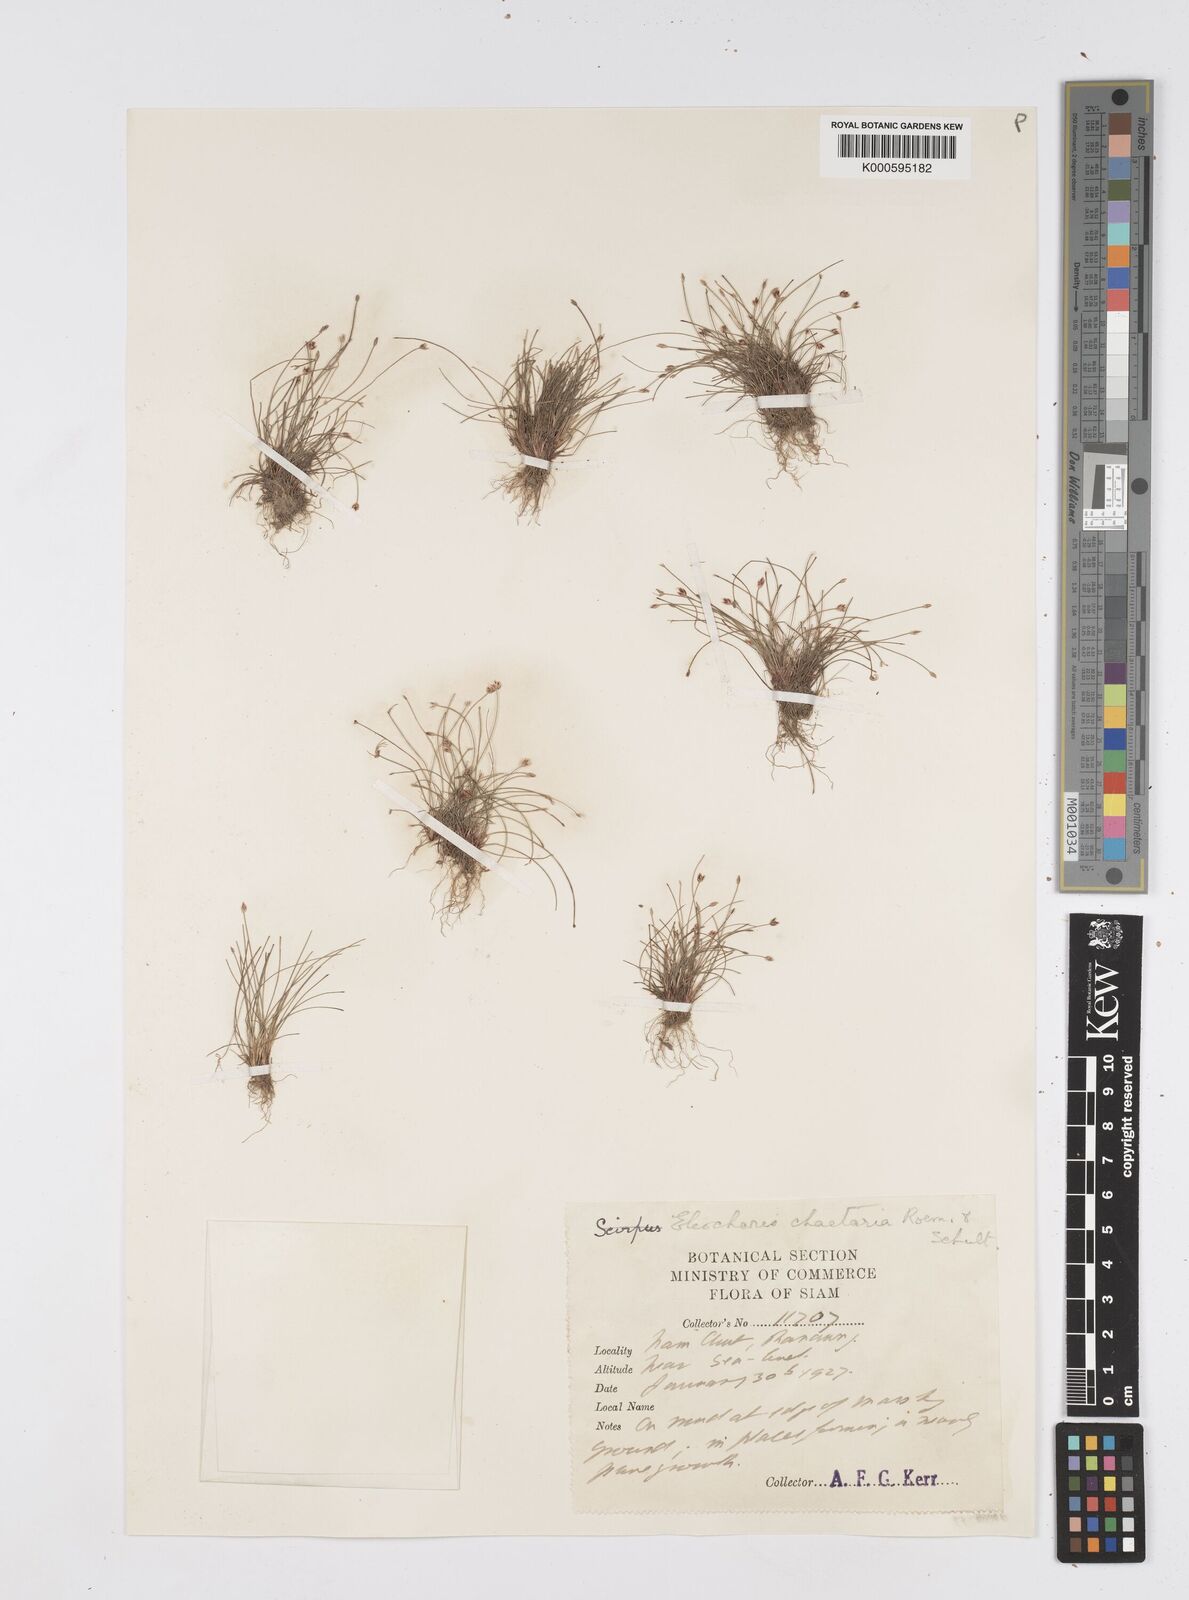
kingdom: Plantae
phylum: Tracheophyta
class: Liliopsida
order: Poales
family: Cyperaceae
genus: Eleocharis
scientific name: Eleocharis retroflexa
